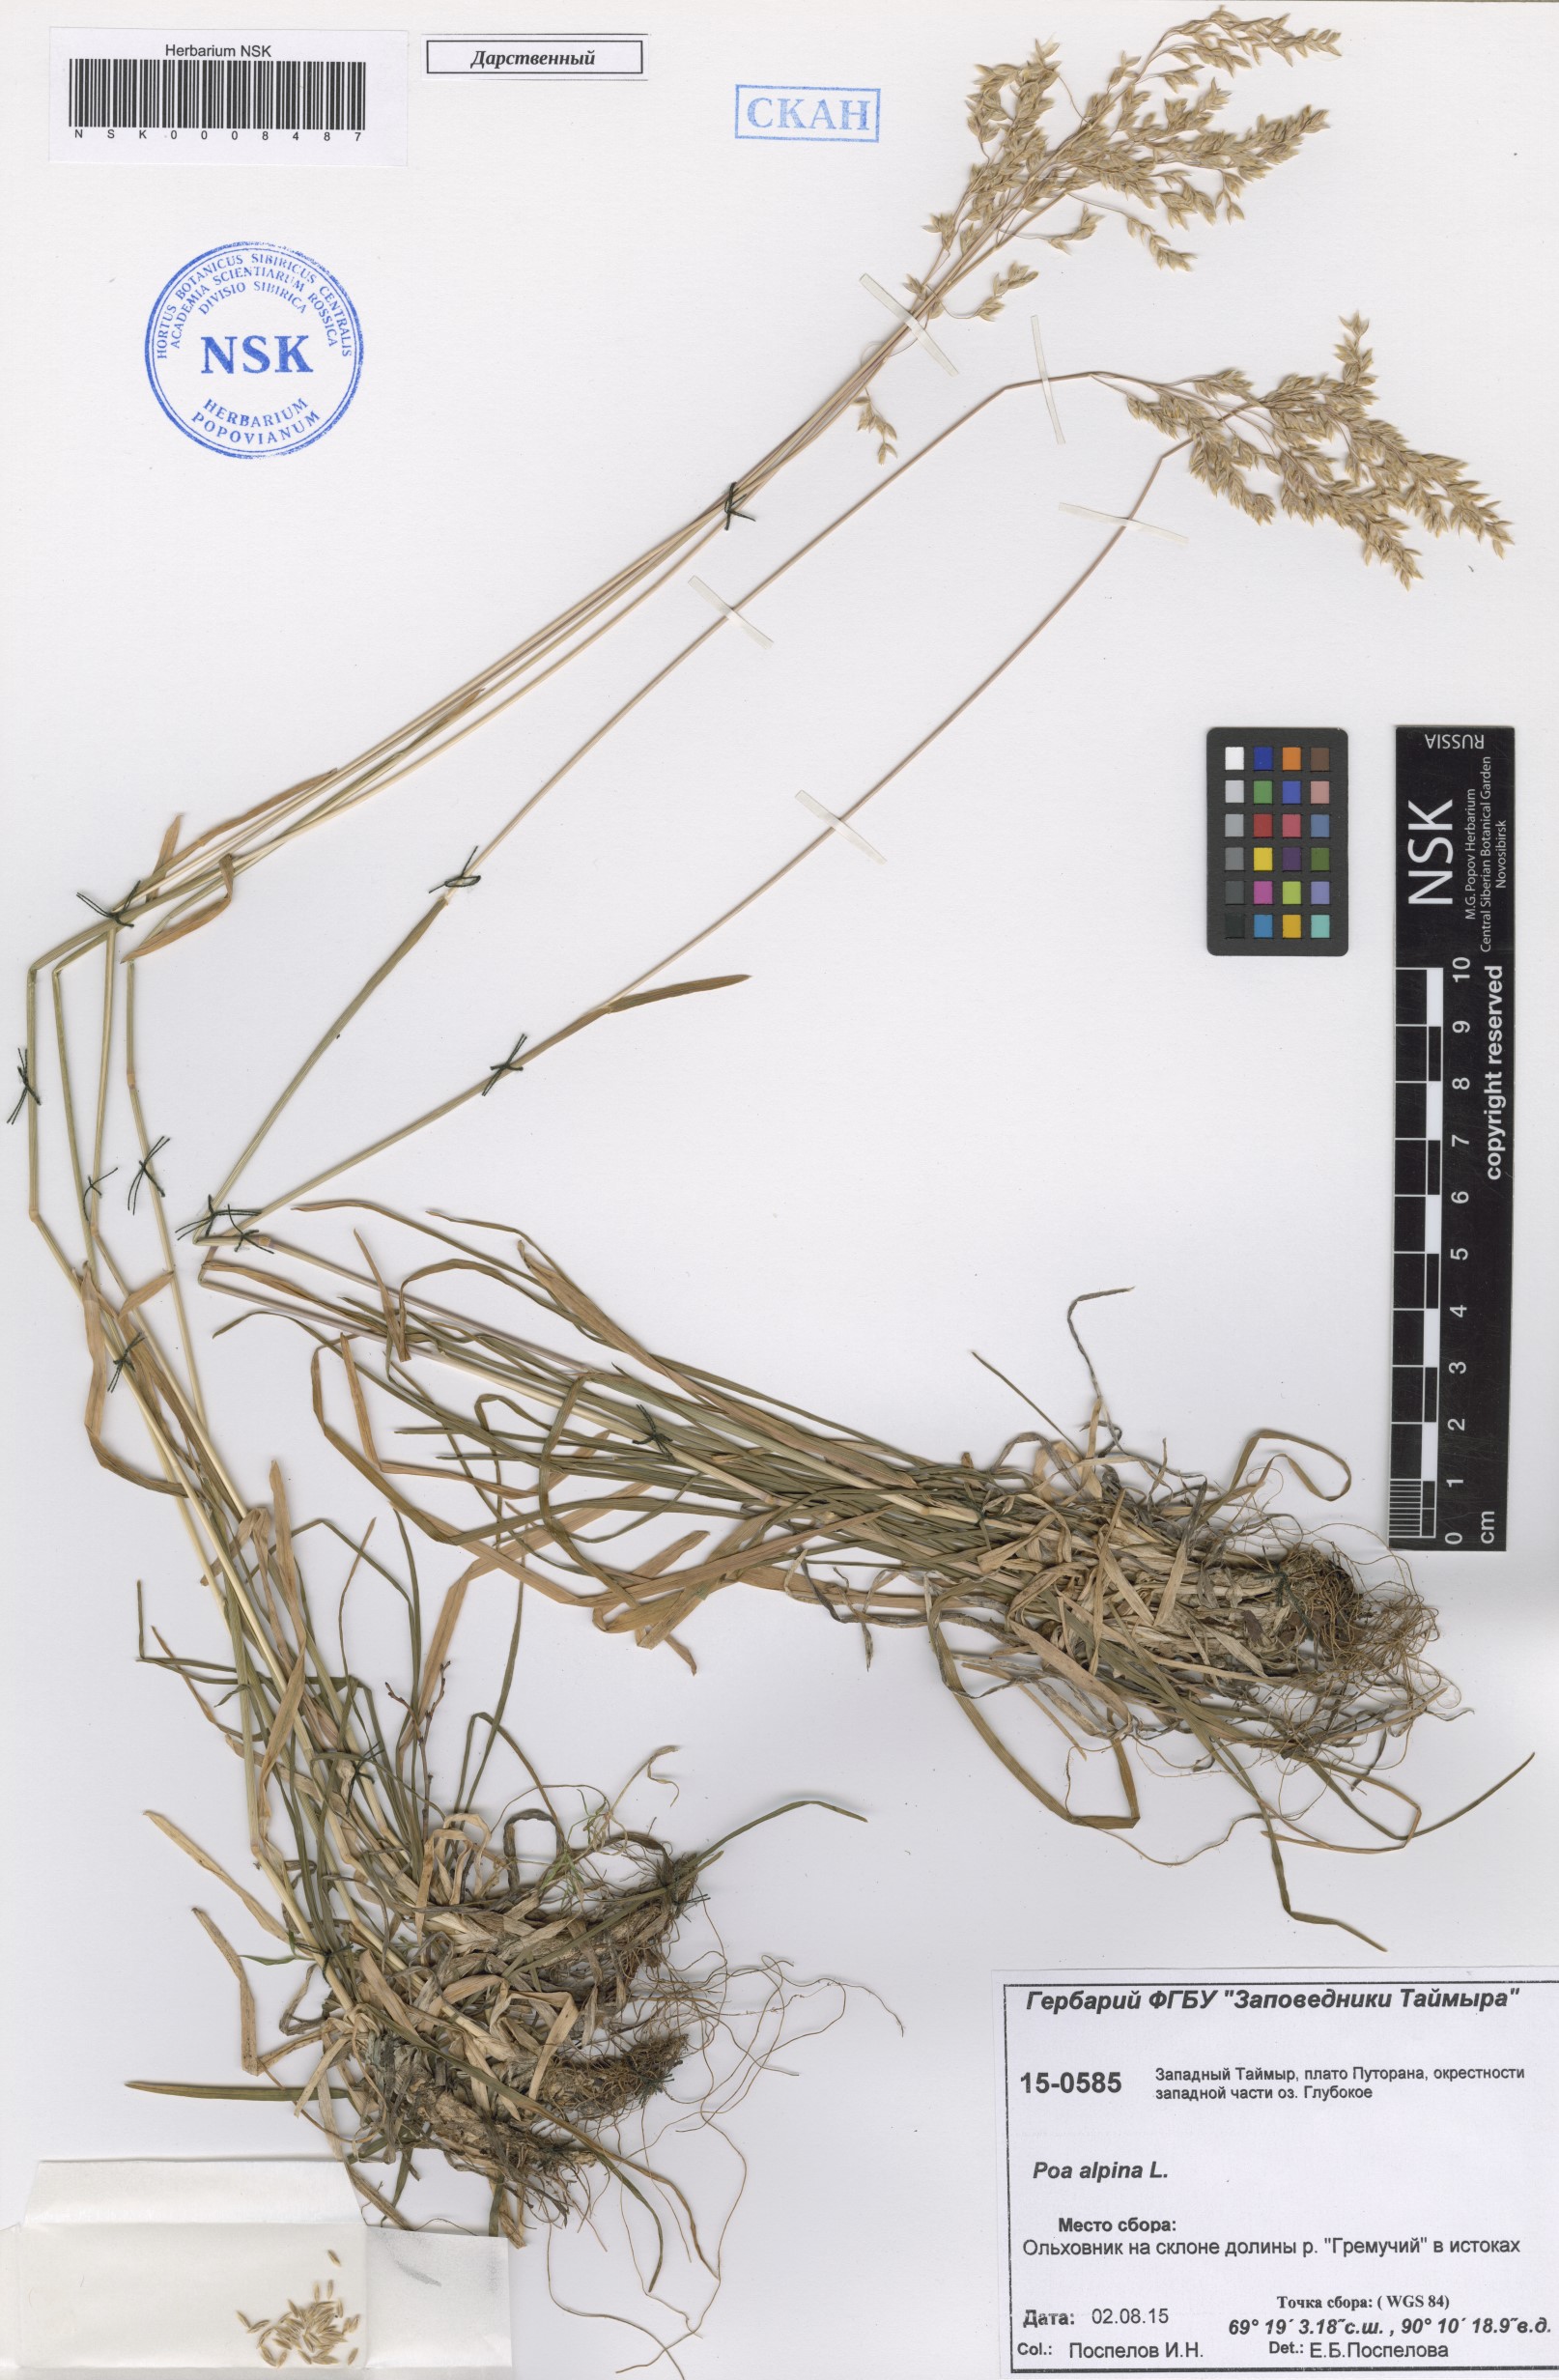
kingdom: Plantae
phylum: Tracheophyta
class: Liliopsida
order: Poales
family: Poaceae
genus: Poa
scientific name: Poa alpina
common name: Alpine bluegrass
